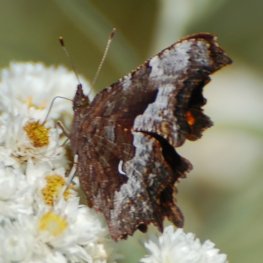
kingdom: Animalia
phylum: Arthropoda
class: Insecta
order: Lepidoptera
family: Nymphalidae
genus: Polygonia
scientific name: Polygonia gracilis
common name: Hoary Comma
